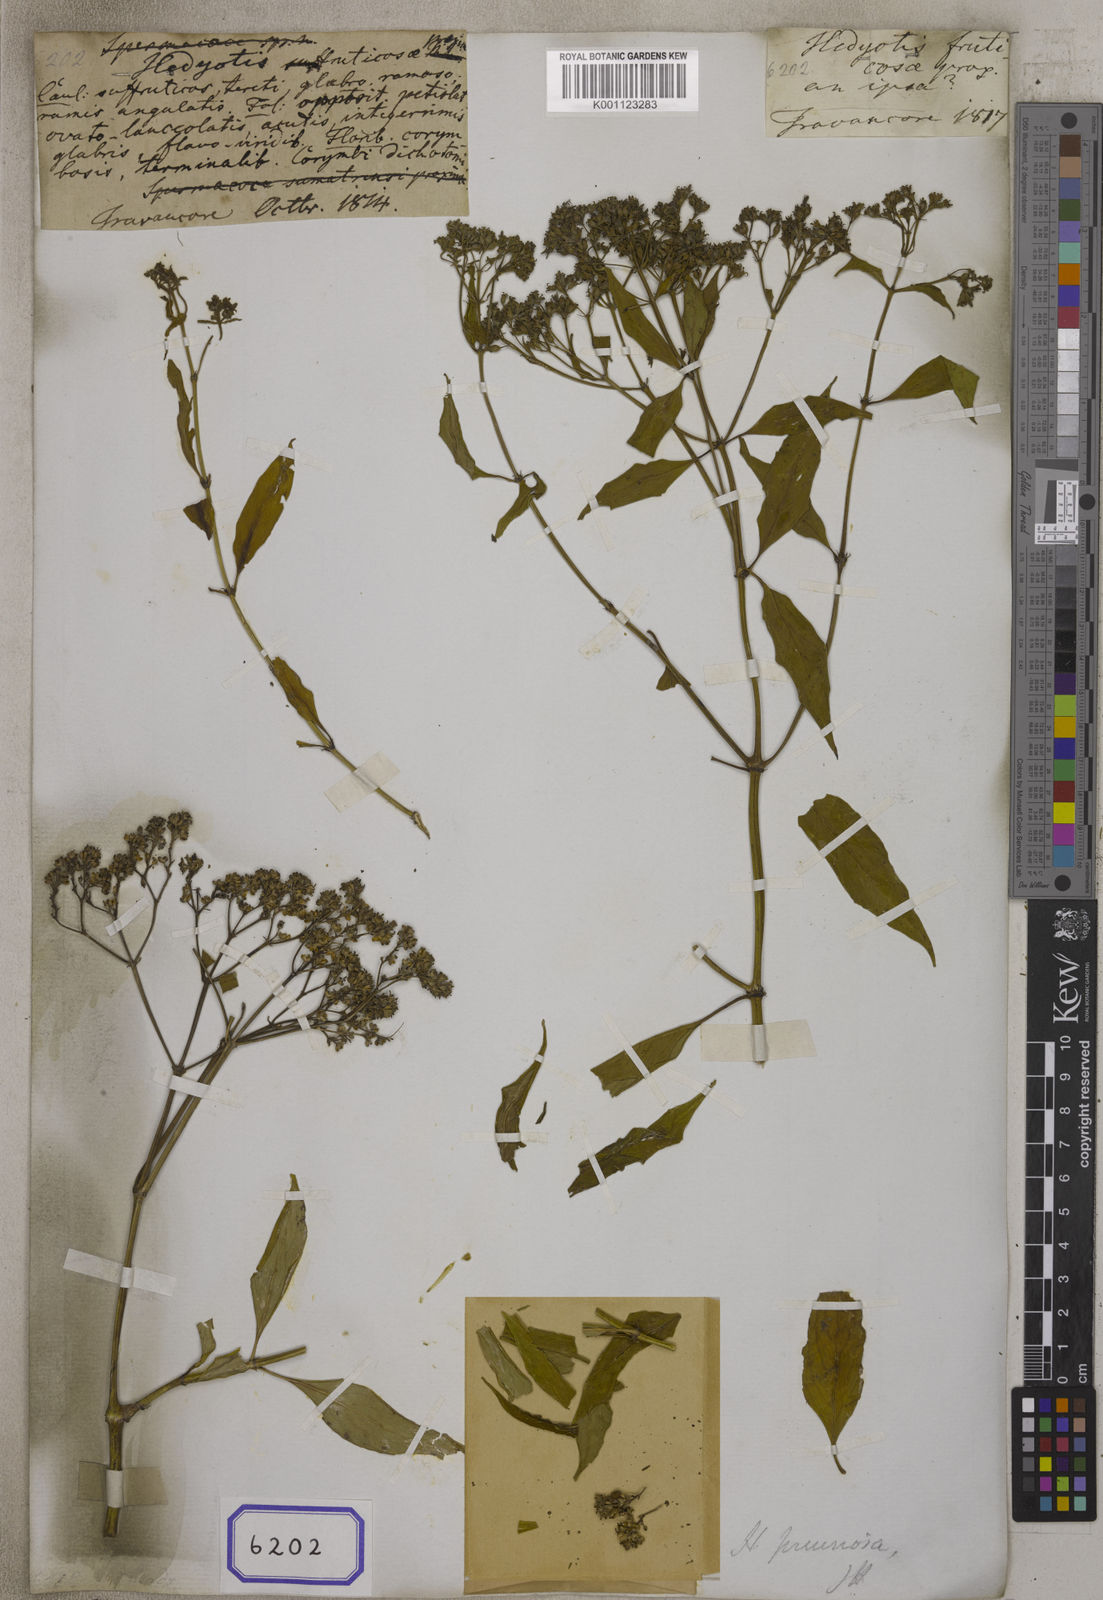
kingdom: Plantae
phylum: Tracheophyta
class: Magnoliopsida
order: Gentianales
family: Rubiaceae
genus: Hedyotis
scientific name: Hedyotis pruinosa
